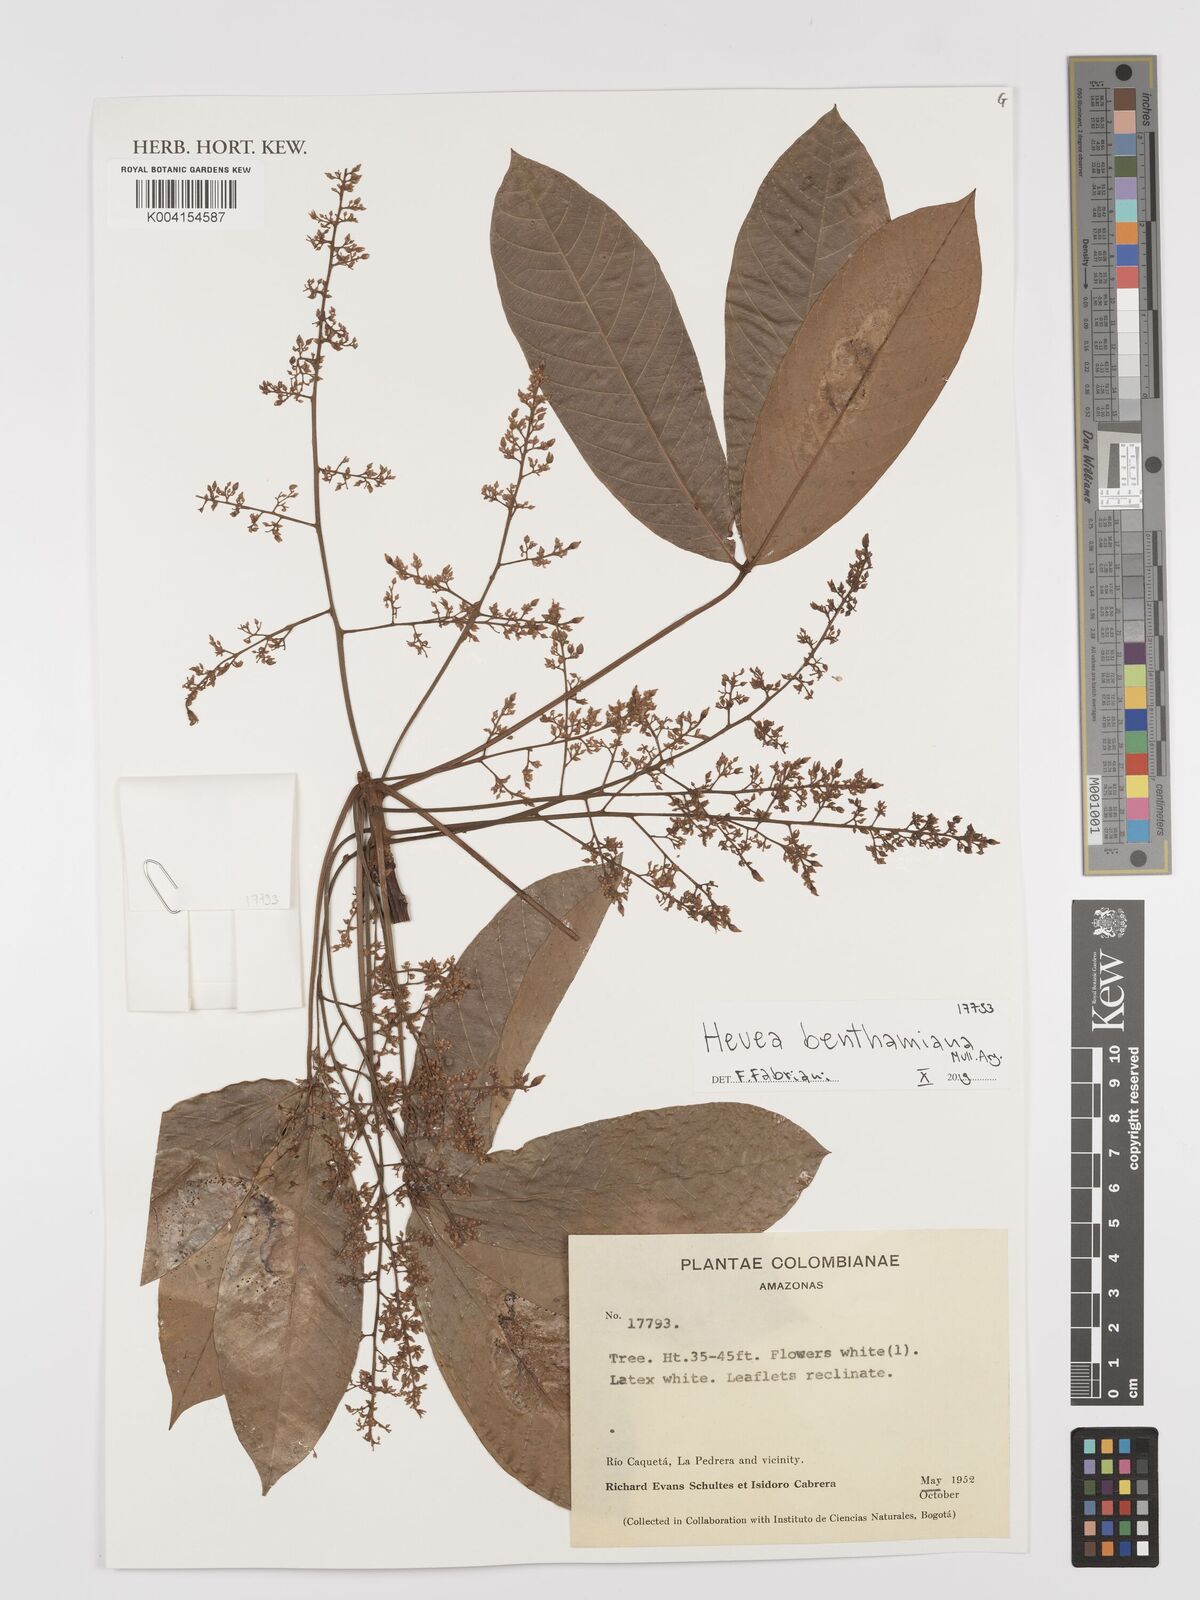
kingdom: Plantae
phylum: Tracheophyta
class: Magnoliopsida
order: Malpighiales
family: Euphorbiaceae
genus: Hevea
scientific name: Hevea benthamiana
